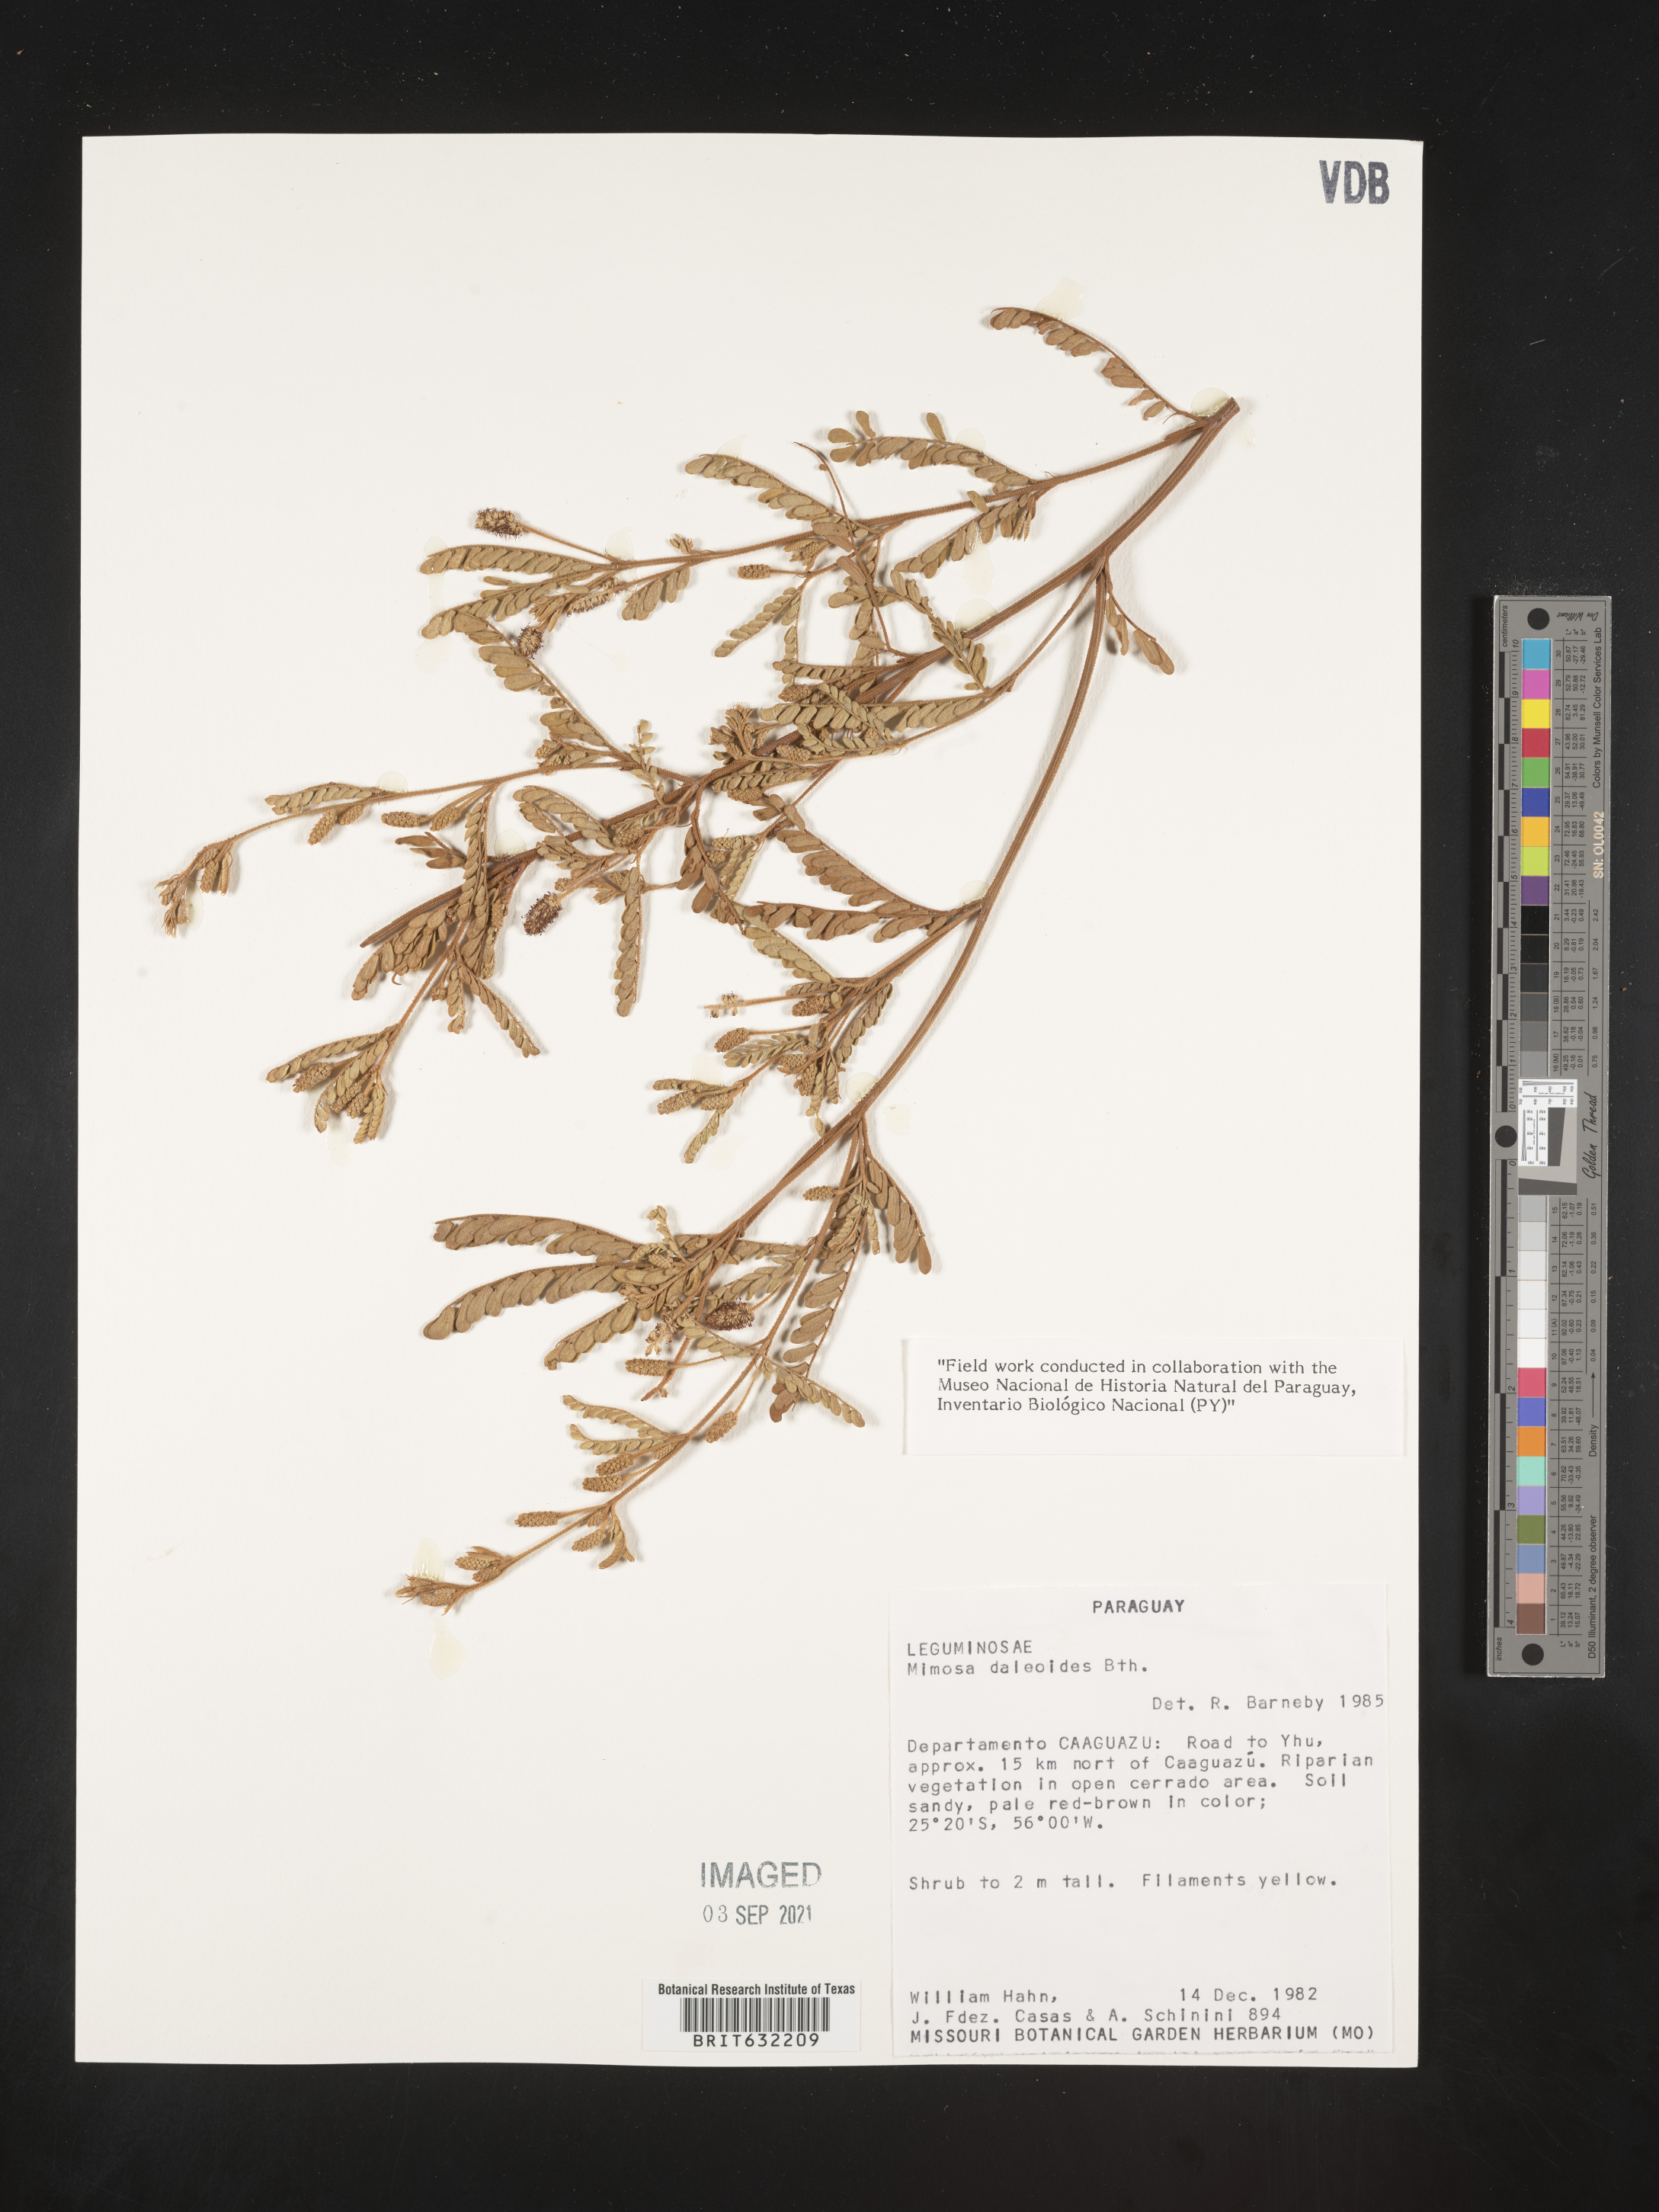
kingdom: Plantae
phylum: Tracheophyta
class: Magnoliopsida
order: Fabales
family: Fabaceae
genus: Mimosa
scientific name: Mimosa
